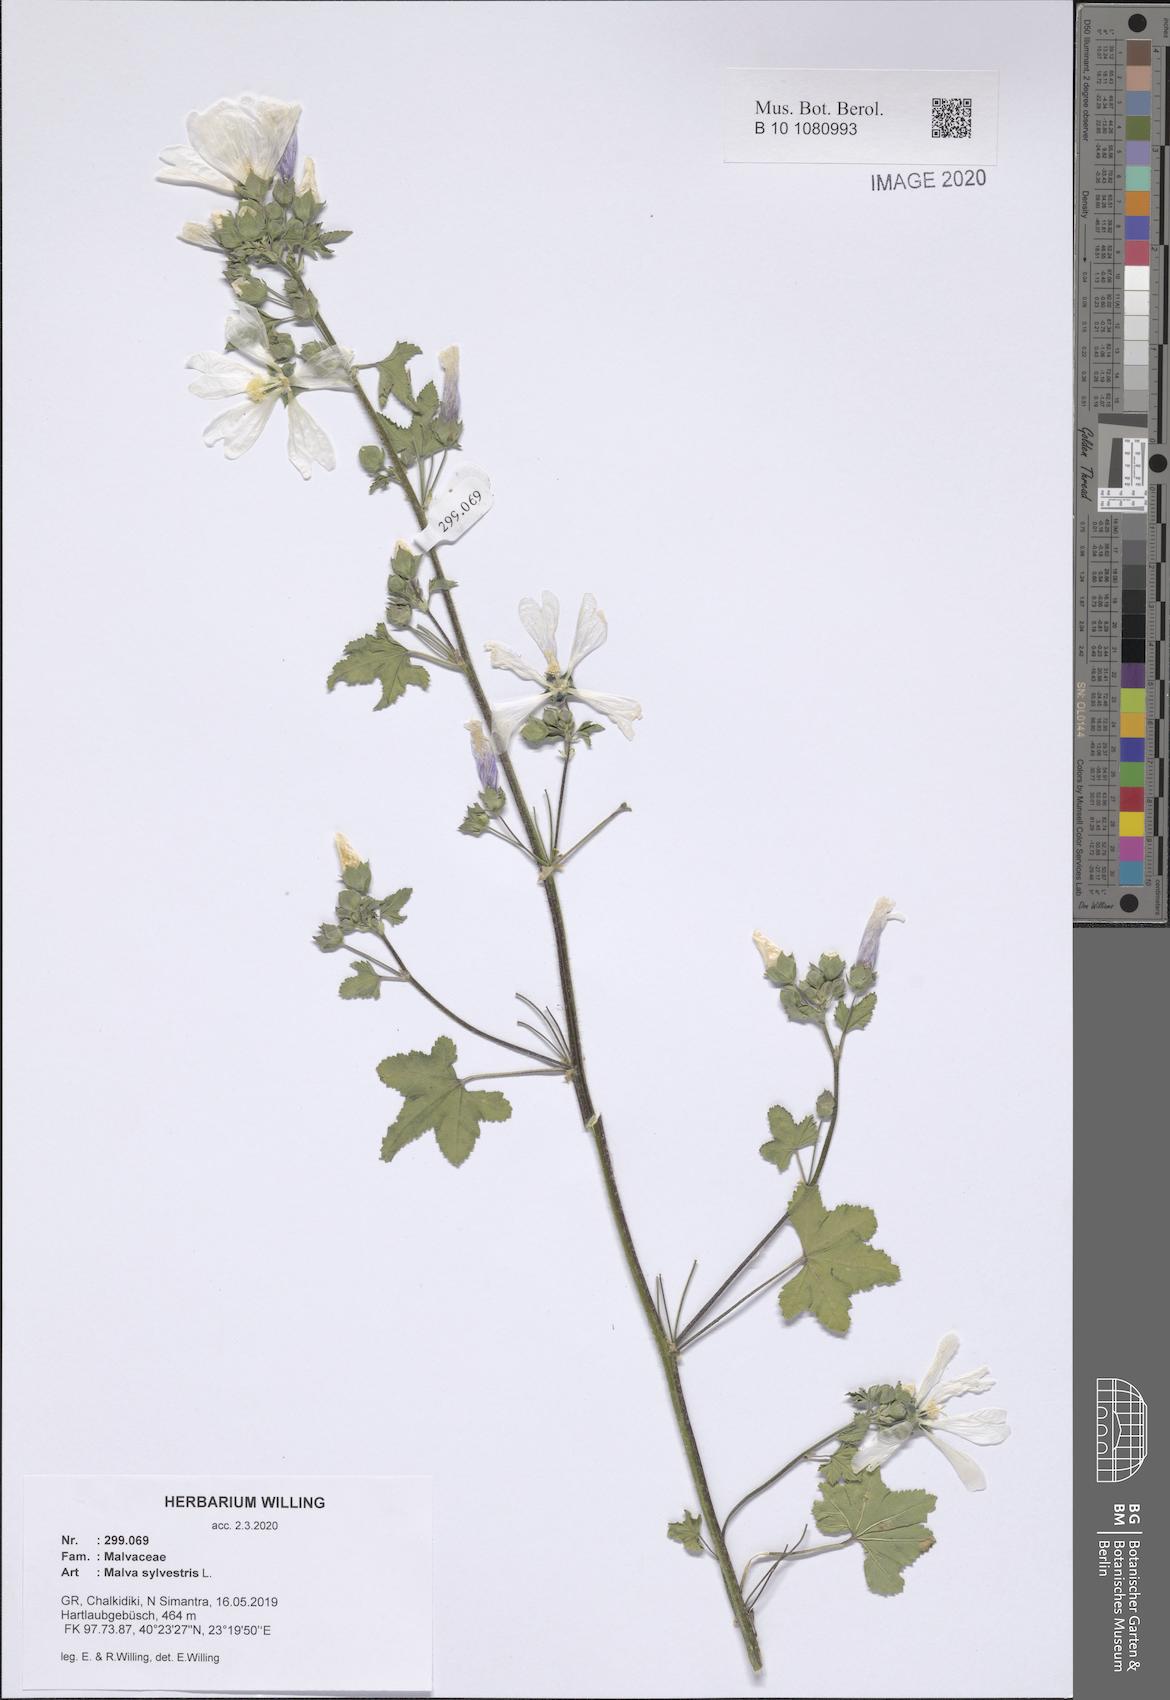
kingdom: Plantae
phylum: Tracheophyta
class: Magnoliopsida
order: Malvales
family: Malvaceae
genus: Malva
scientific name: Malva sylvestris
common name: Common mallow
